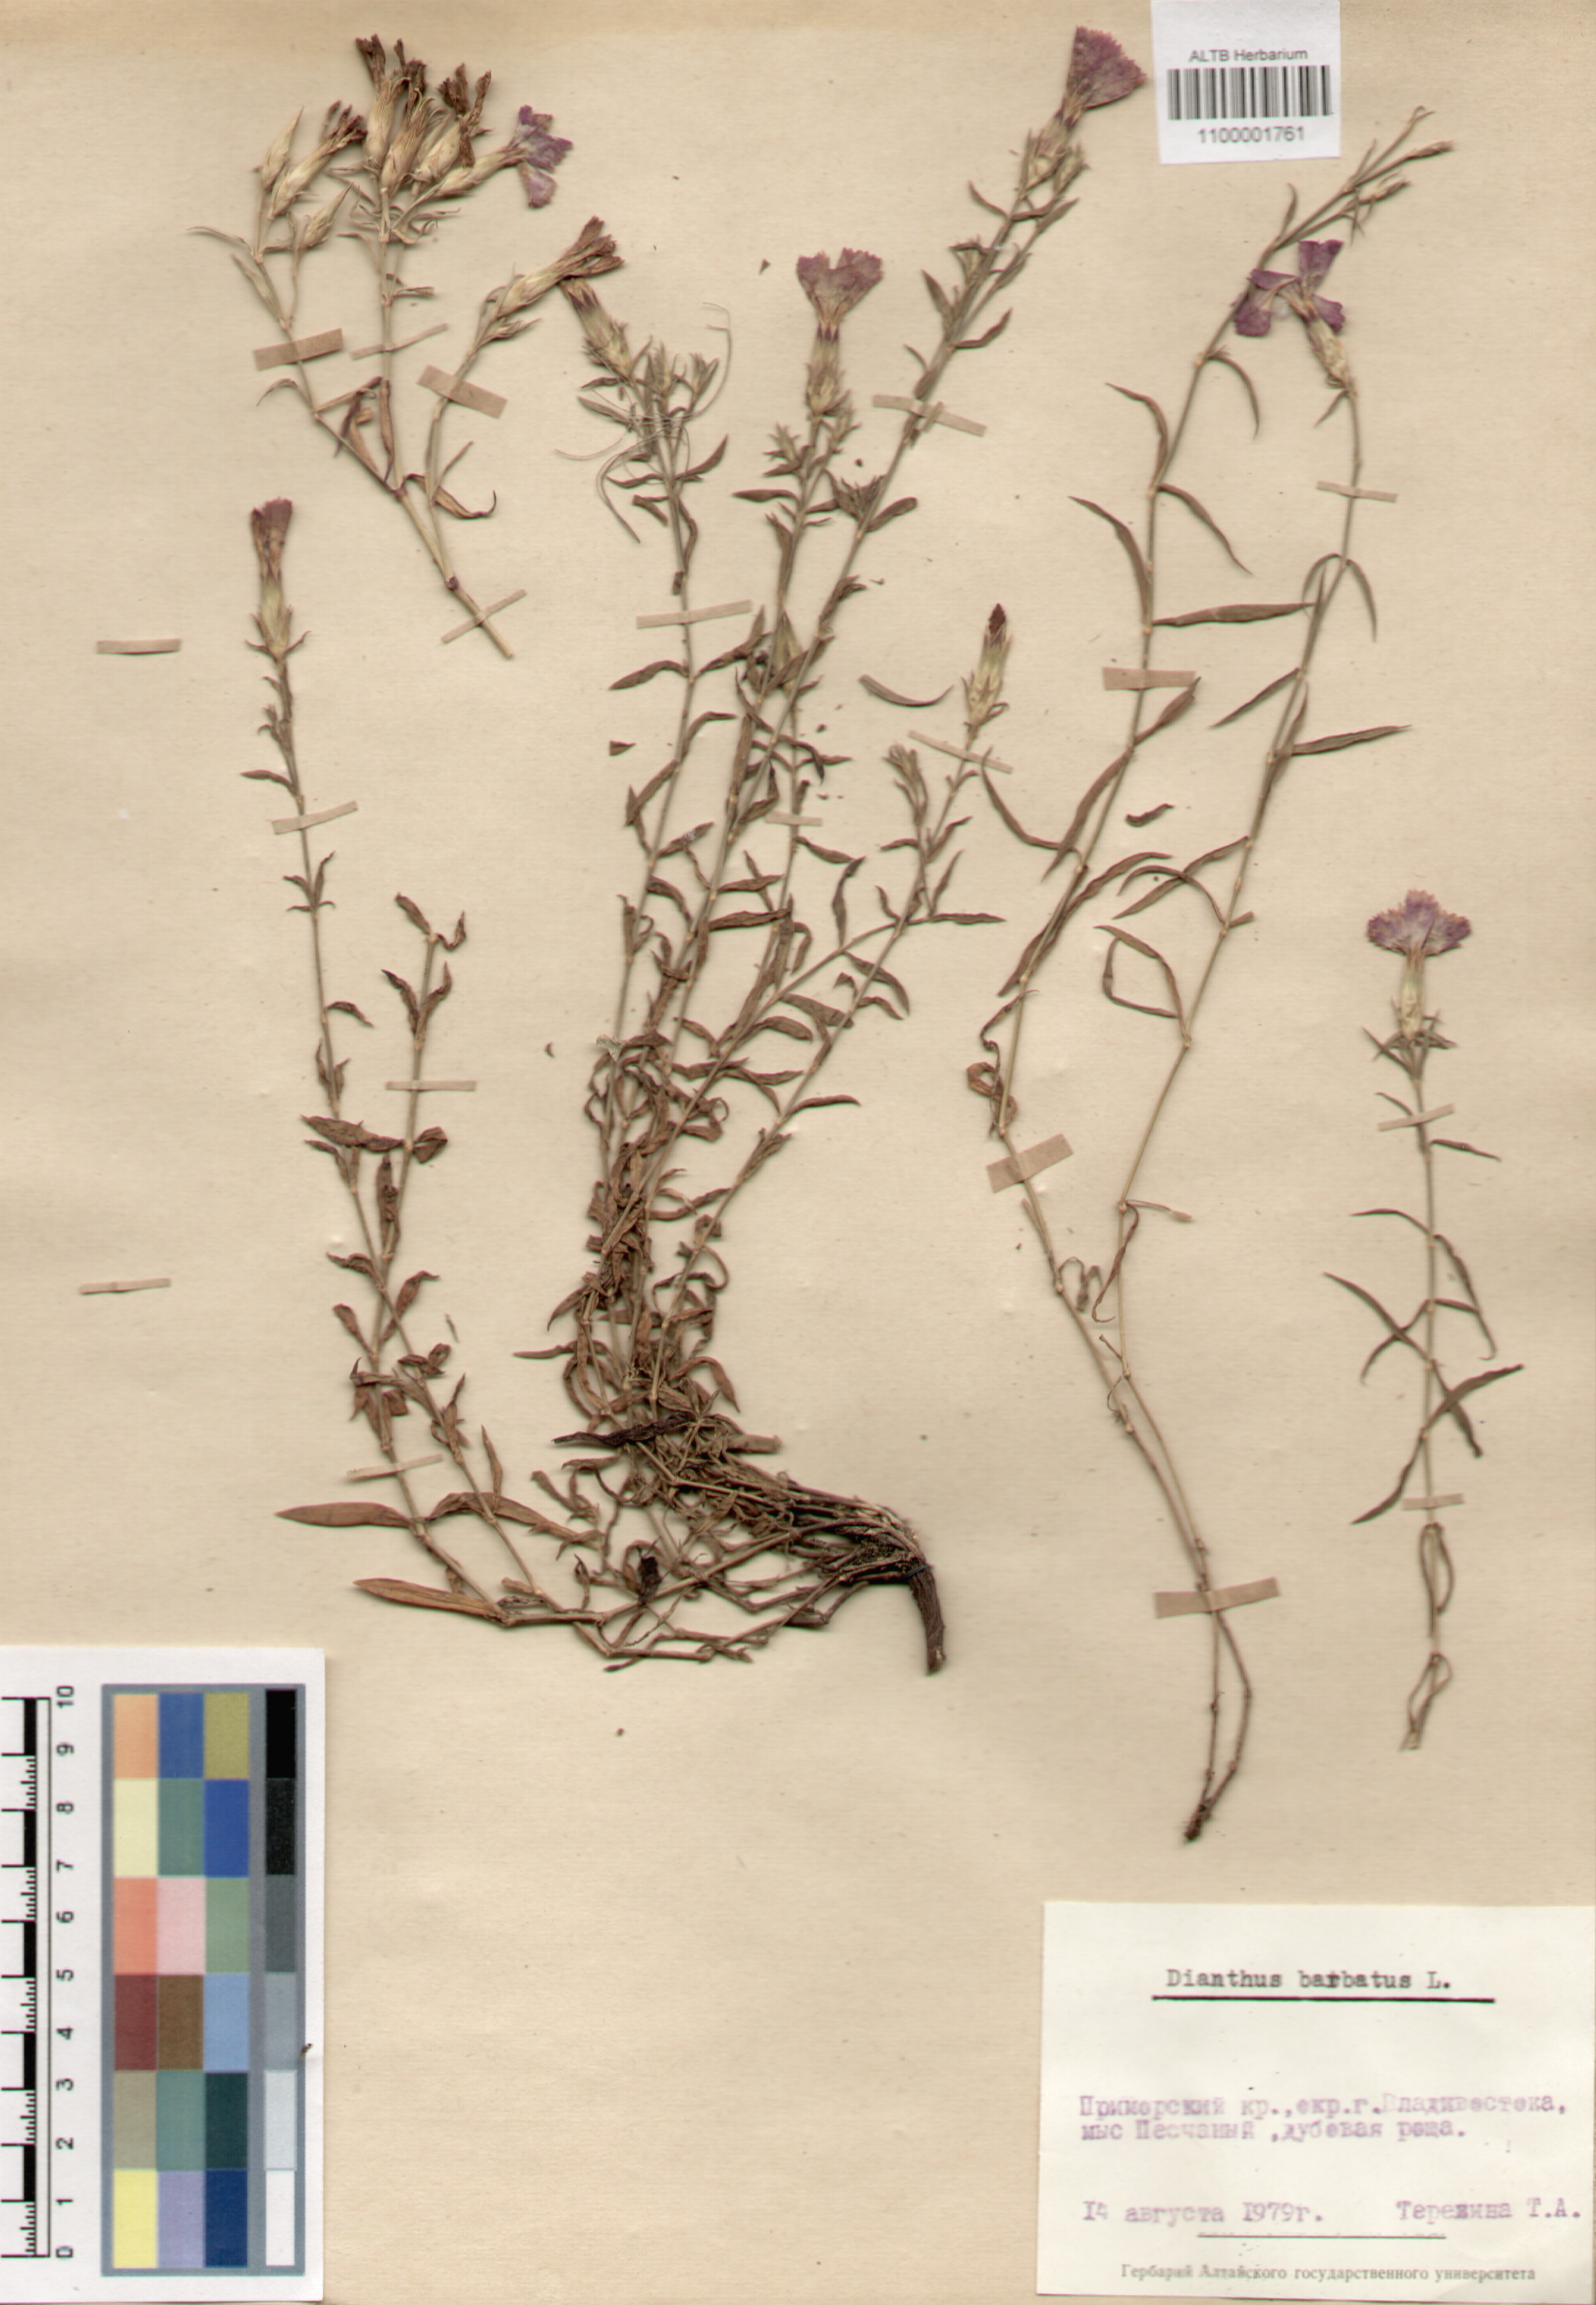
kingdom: Plantae
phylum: Tracheophyta
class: Magnoliopsida
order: Caryophyllales
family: Caryophyllaceae
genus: Dianthus
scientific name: Dianthus barbatus
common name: Sweet-william
